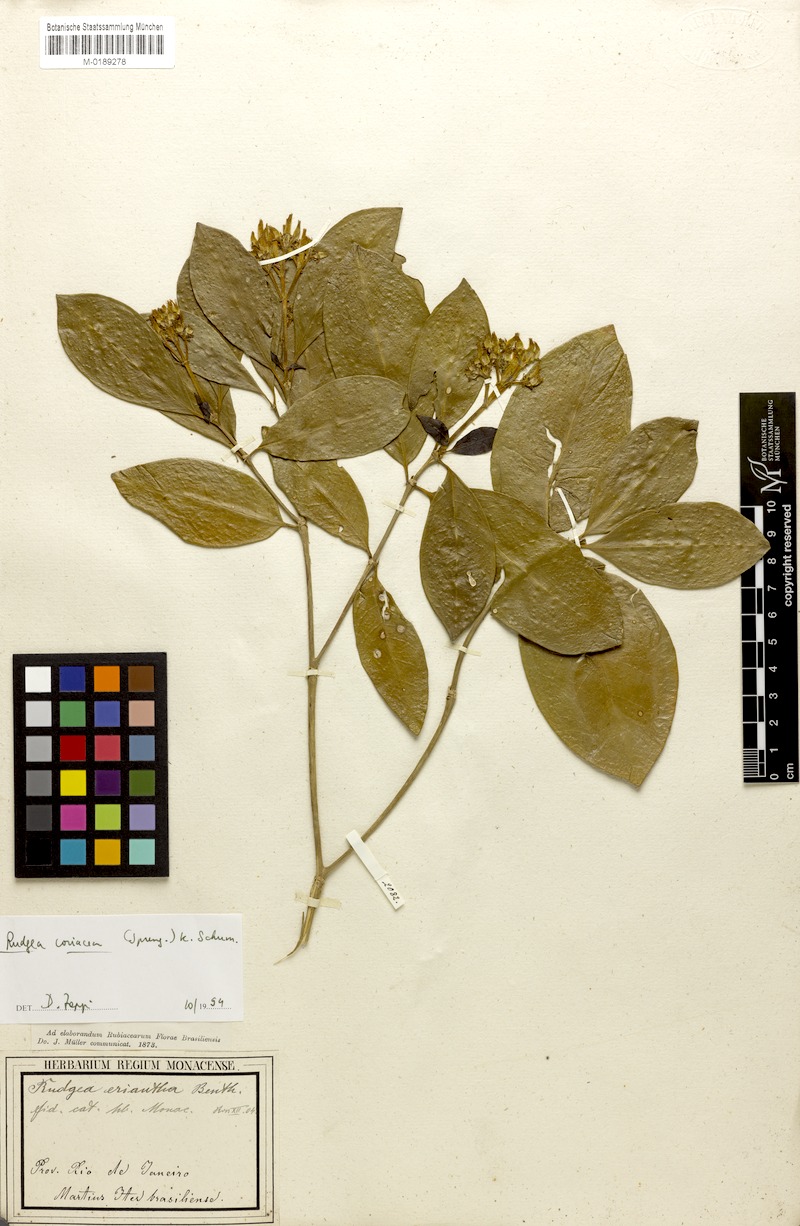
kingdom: Plantae
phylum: Tracheophyta
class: Magnoliopsida
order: Gentianales
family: Rubiaceae
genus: Rudgea
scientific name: Rudgea coriacea
